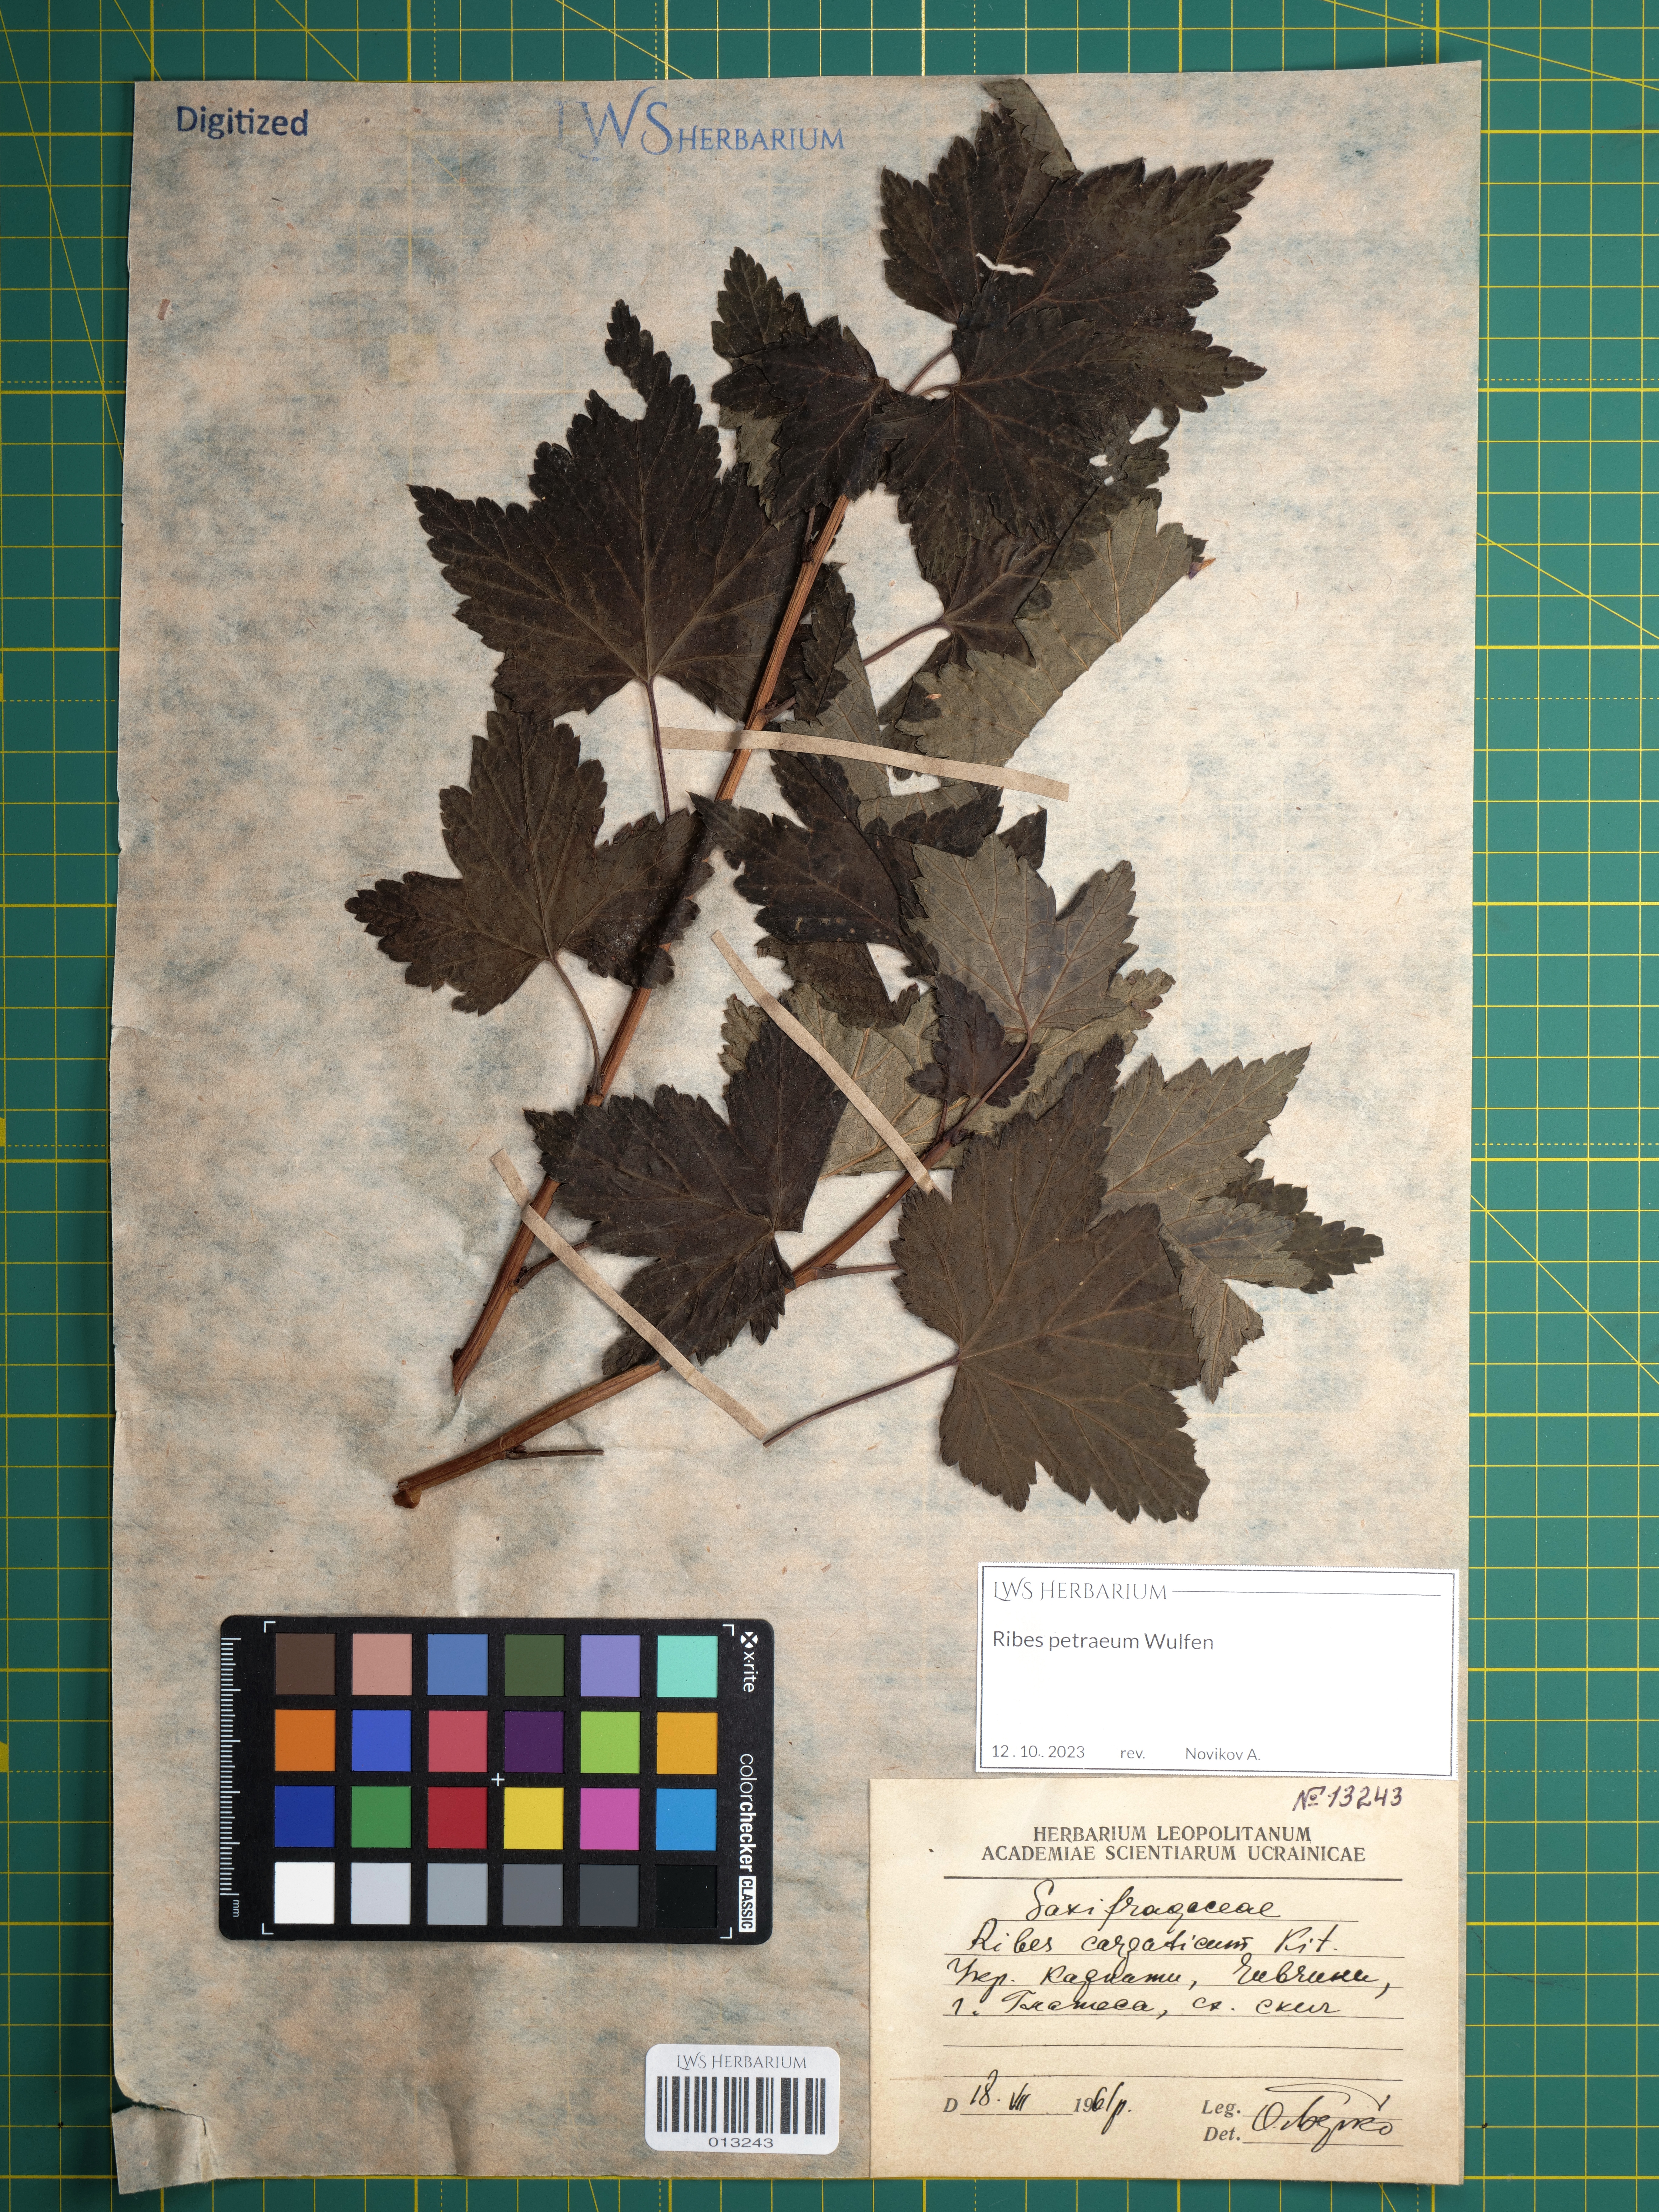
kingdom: Plantae
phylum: Tracheophyta
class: Magnoliopsida
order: Saxifragales
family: Grossulariaceae
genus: Ribes
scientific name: Ribes petraeum
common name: Rock currant
